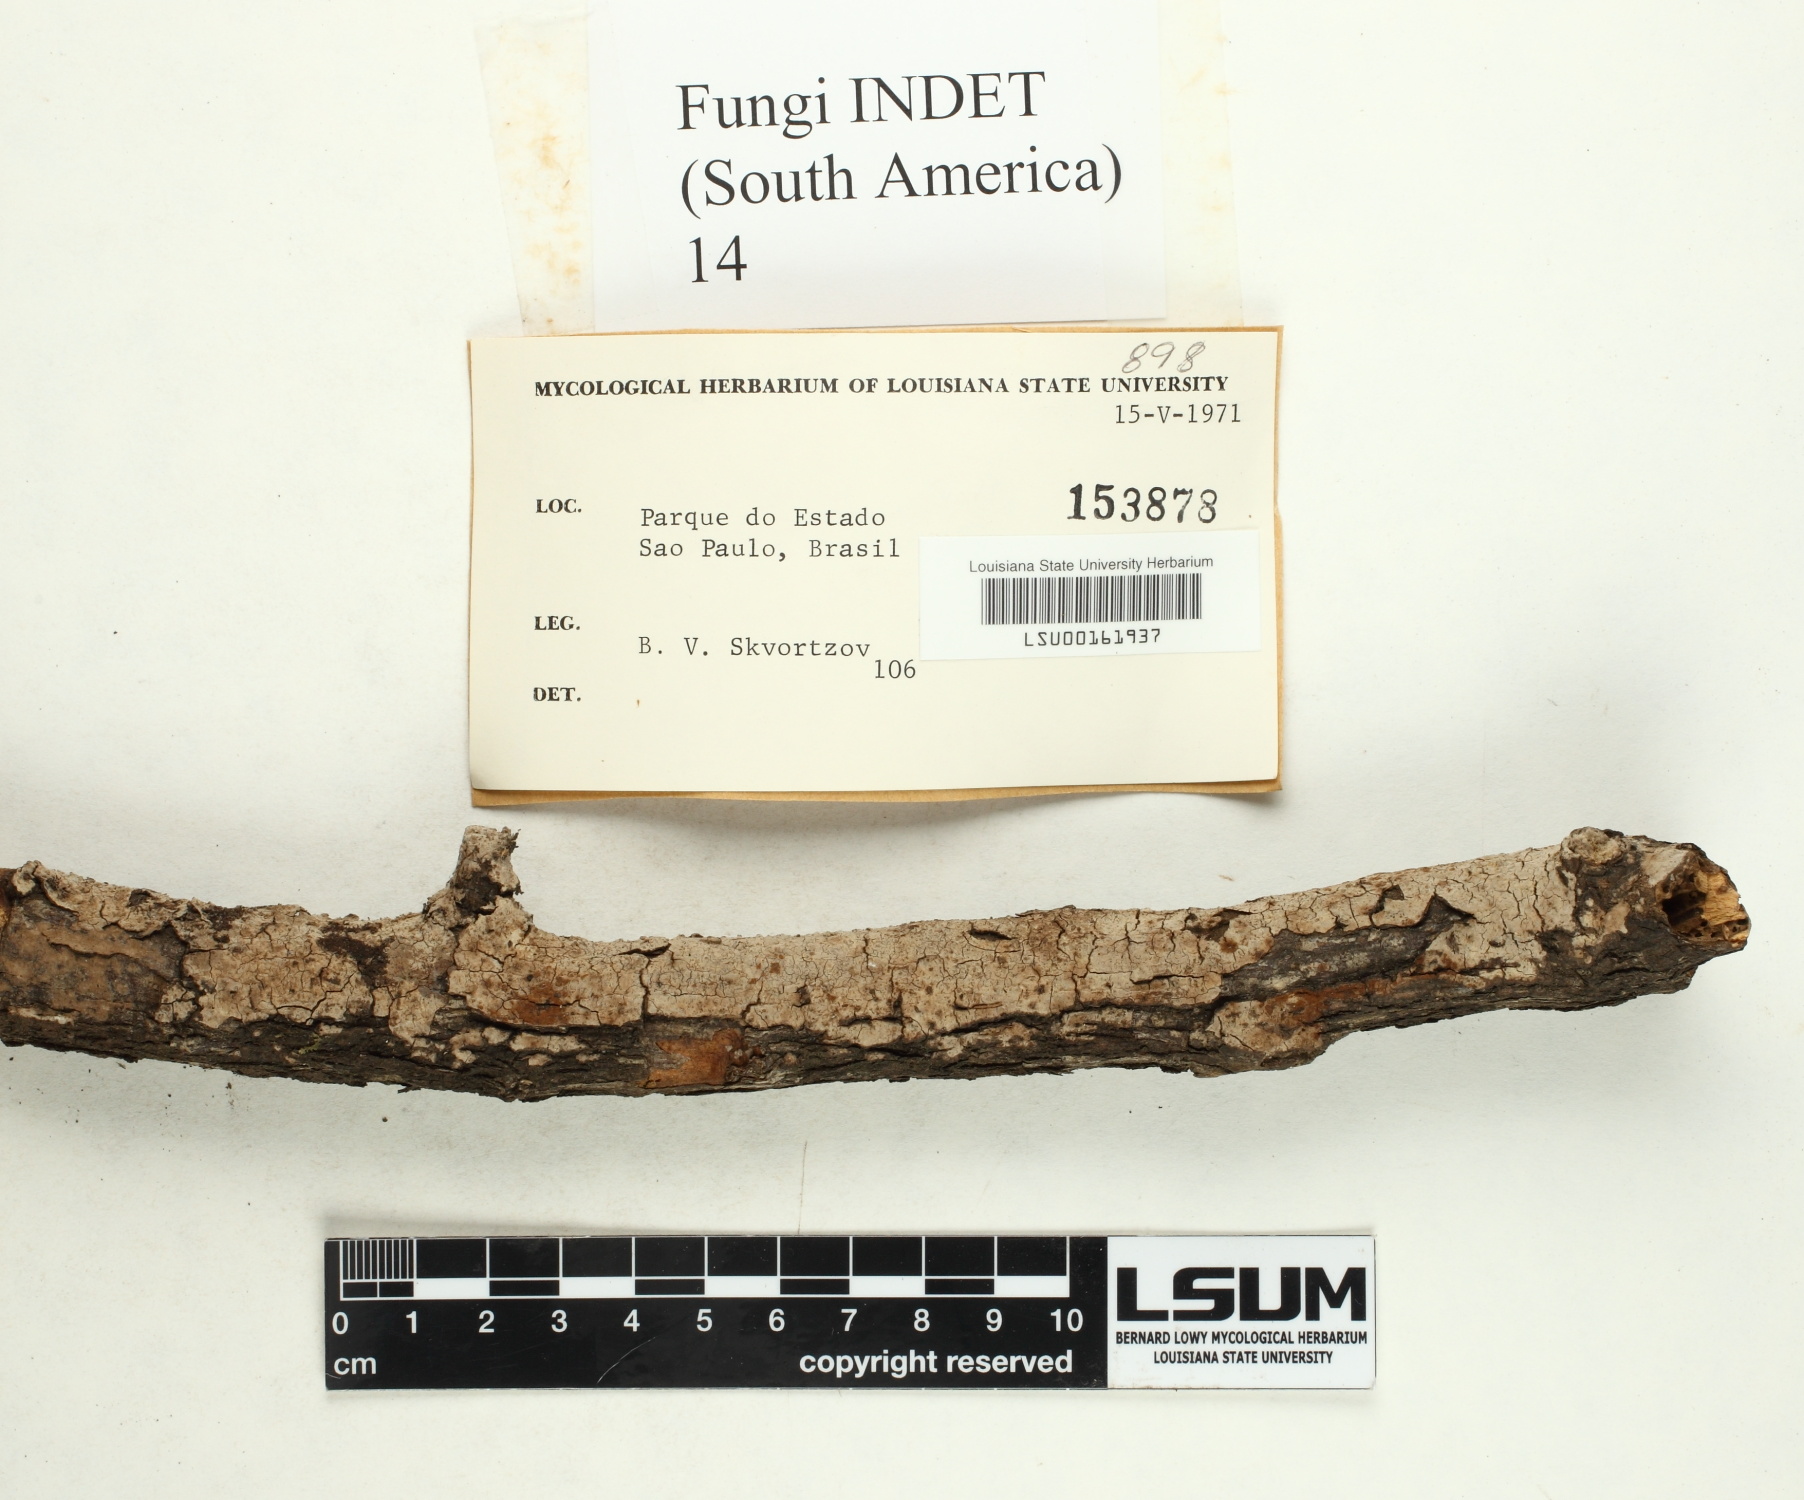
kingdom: Fungi
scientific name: Fungi
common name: Fungi
